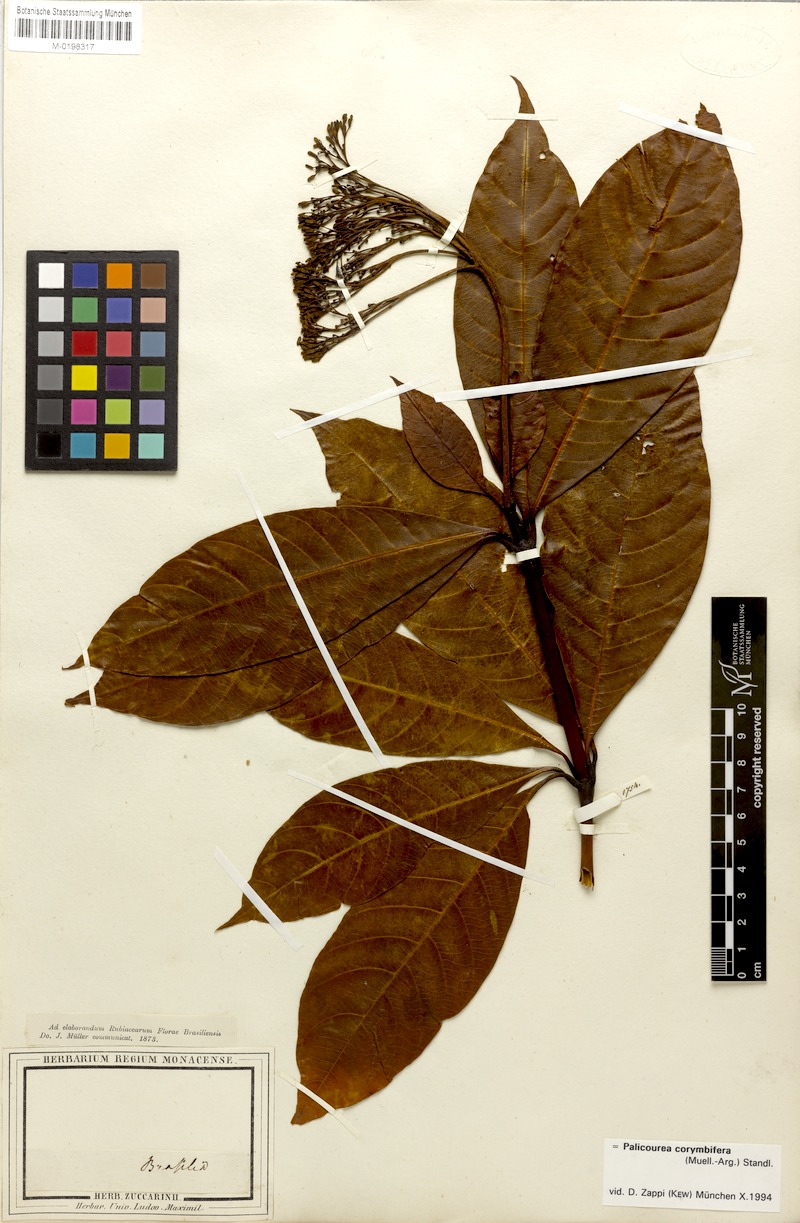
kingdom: Plantae
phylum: Tracheophyta
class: Magnoliopsida
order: Gentianales
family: Rubiaceae
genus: Palicourea
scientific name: Palicourea corymbifera
